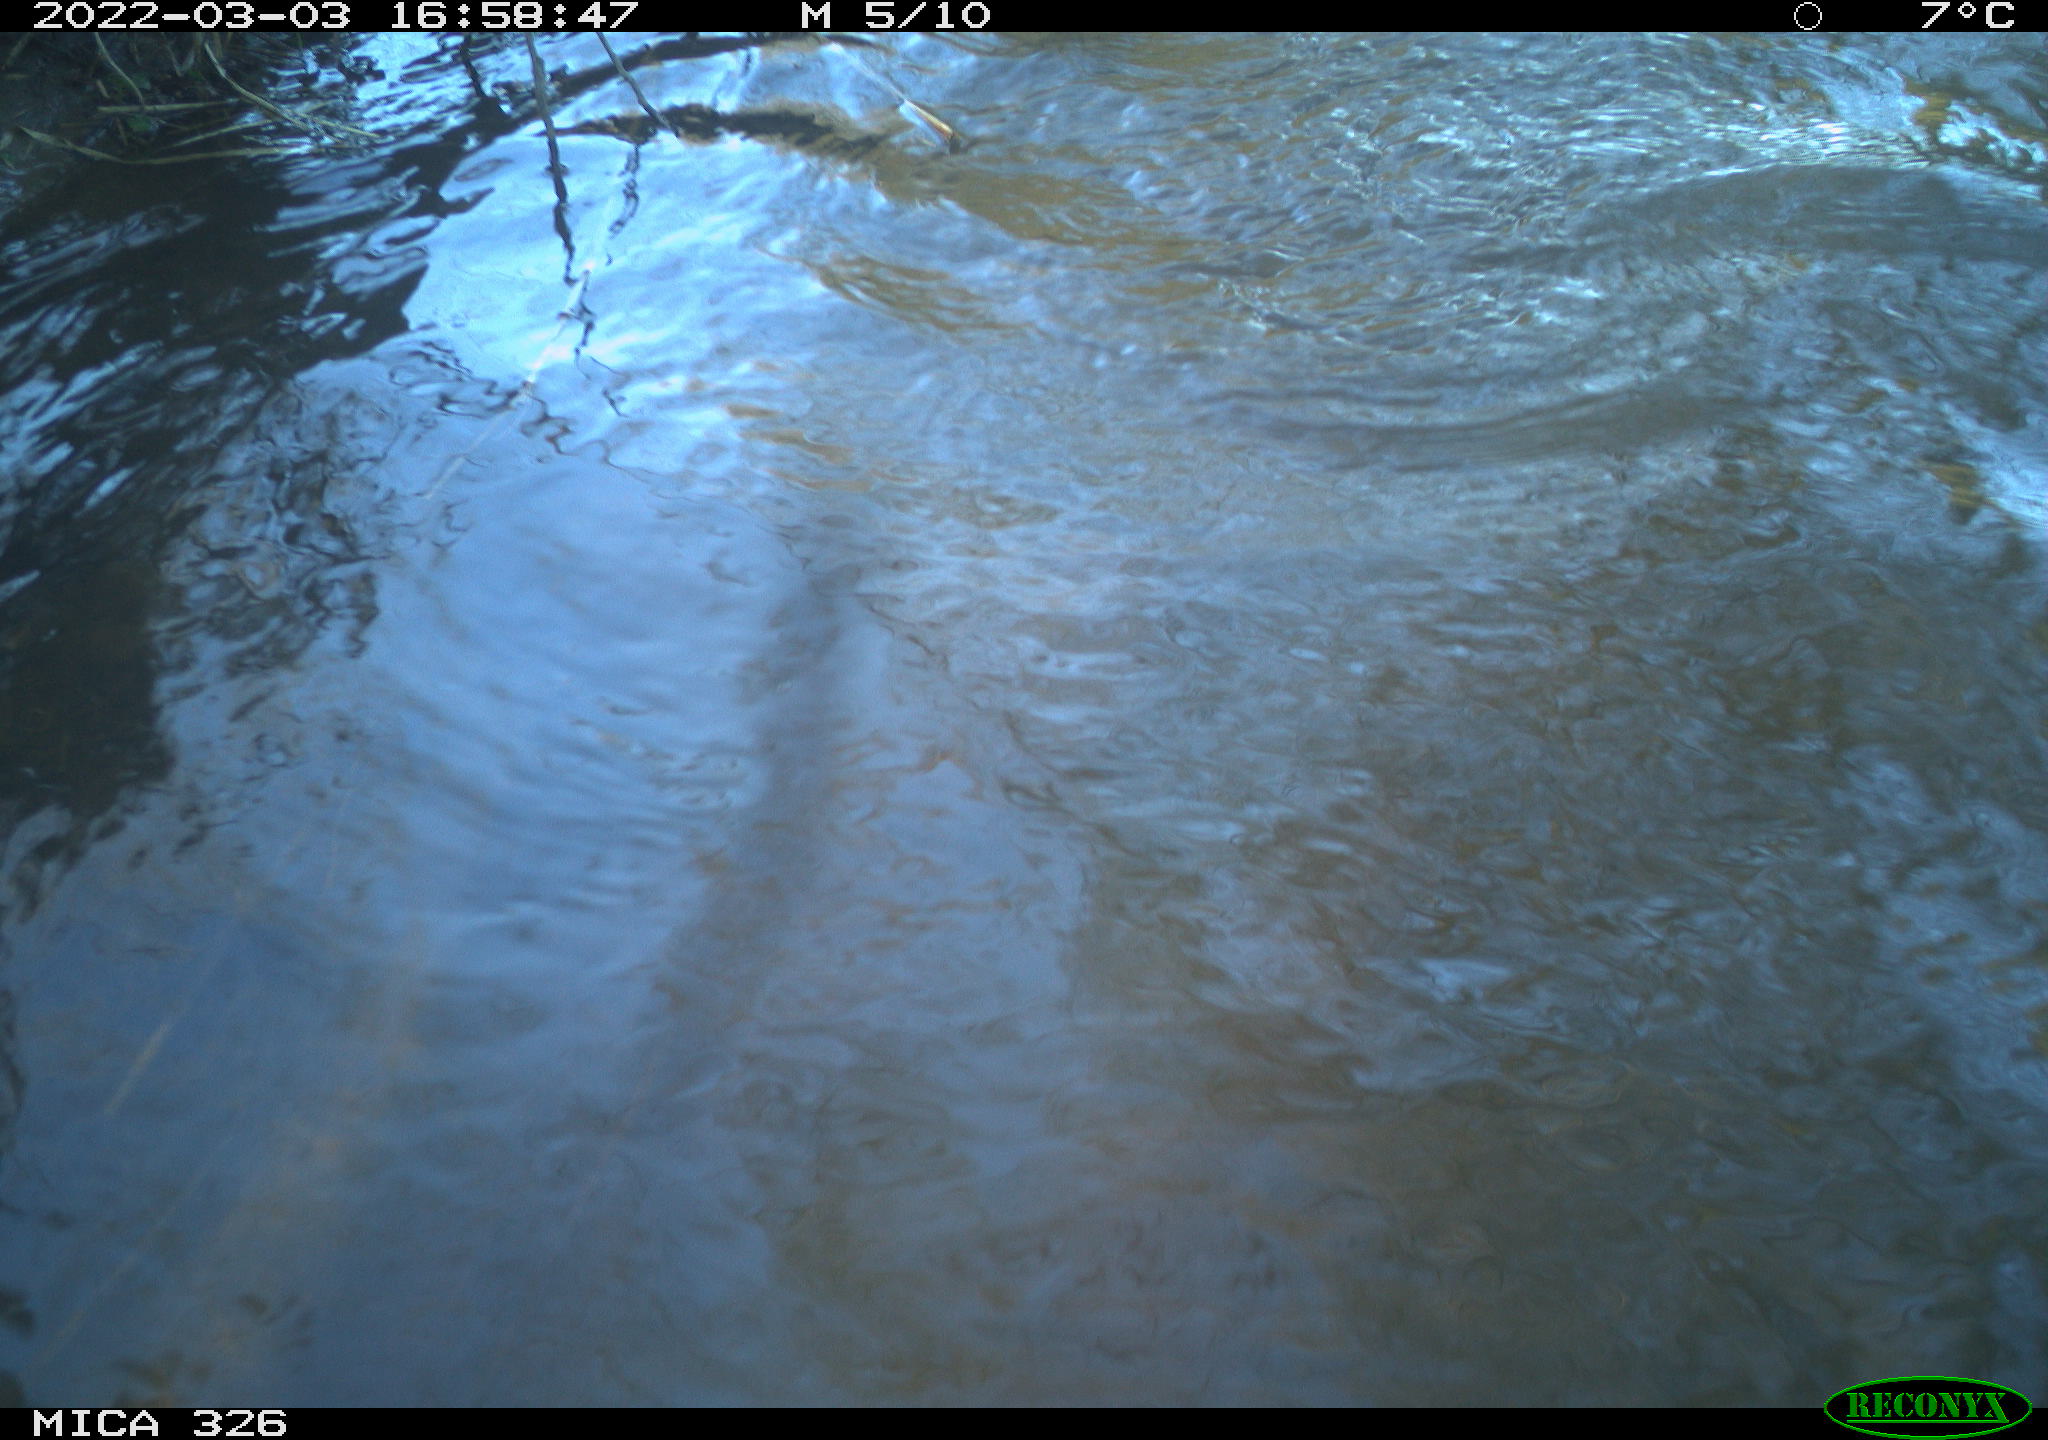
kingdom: Animalia
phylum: Chordata
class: Mammalia
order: Rodentia
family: Cricetidae
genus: Ondatra
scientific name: Ondatra zibethicus
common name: Muskrat
